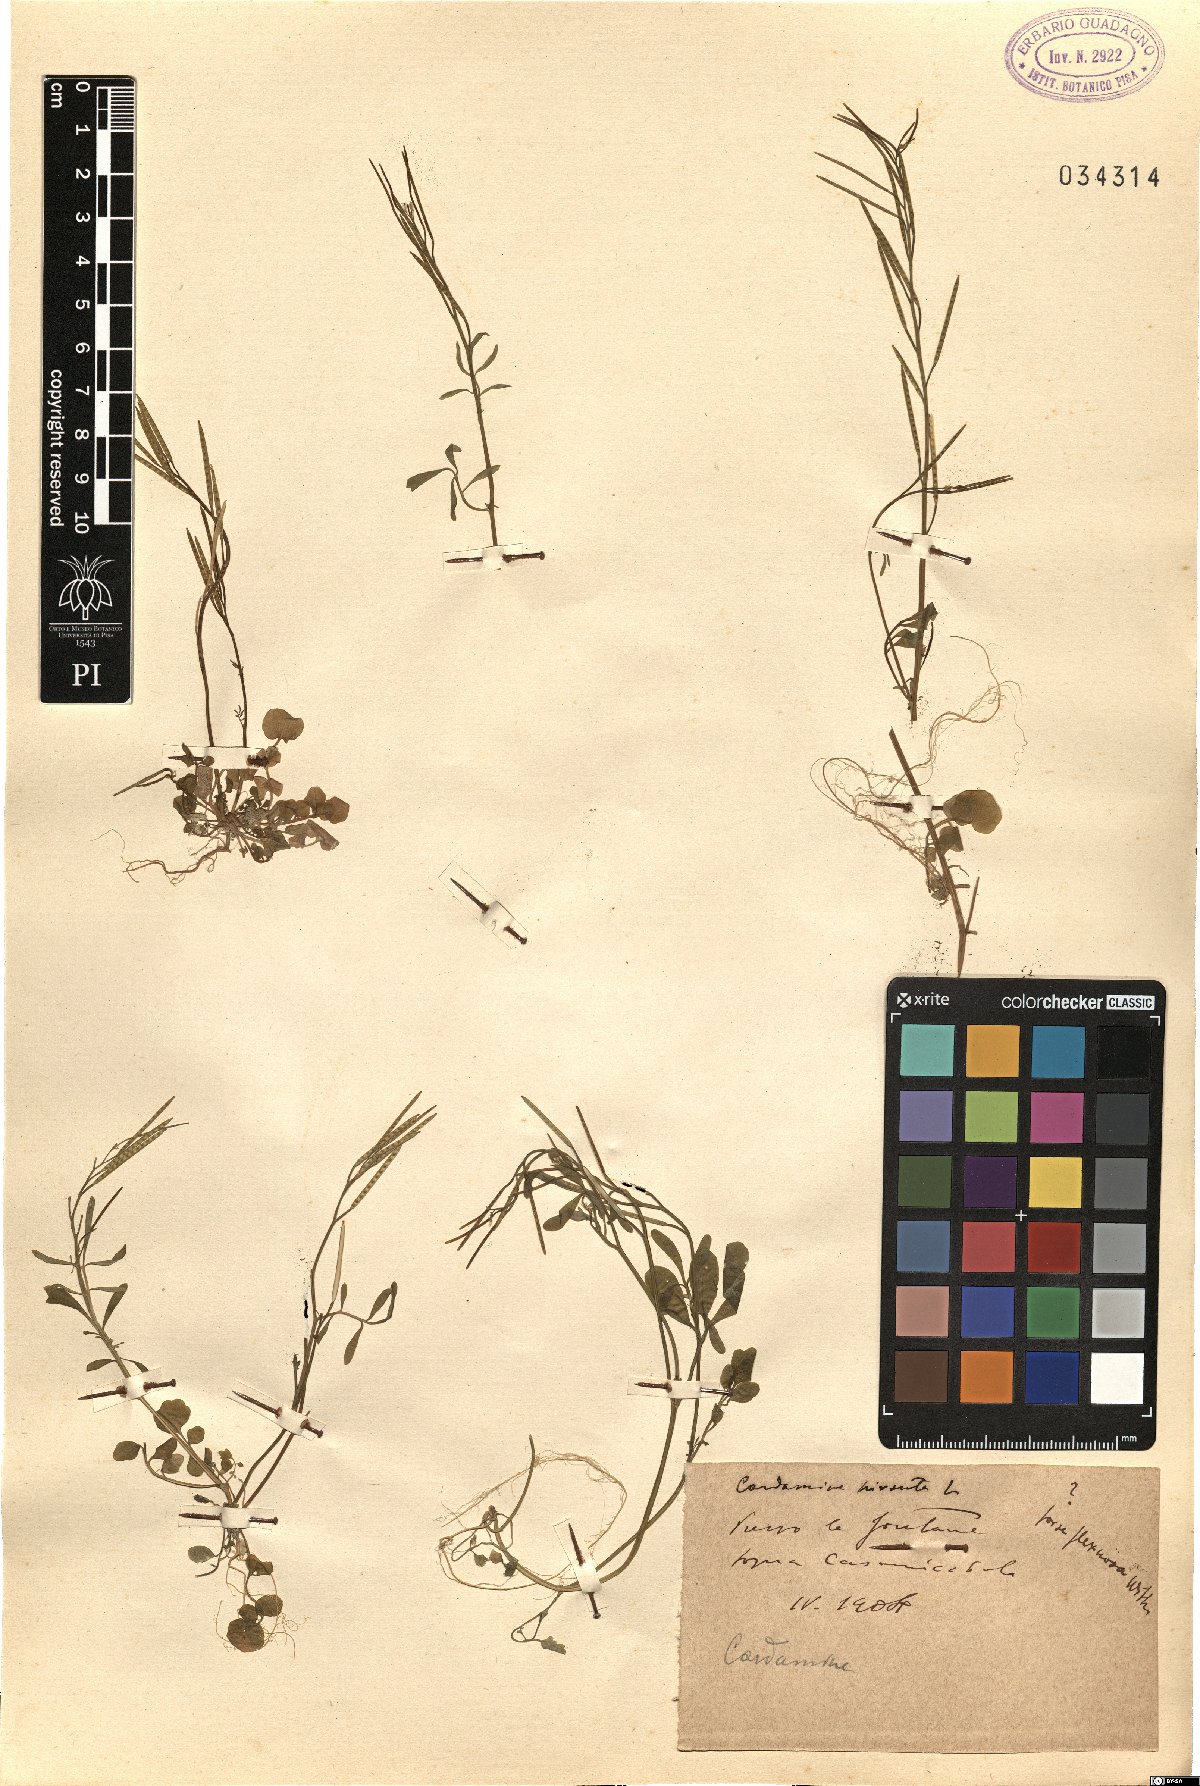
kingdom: Plantae
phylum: Tracheophyta
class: Magnoliopsida
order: Brassicales
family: Brassicaceae
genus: Cardamine
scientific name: Cardamine hirsuta
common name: Hairy bittercress
